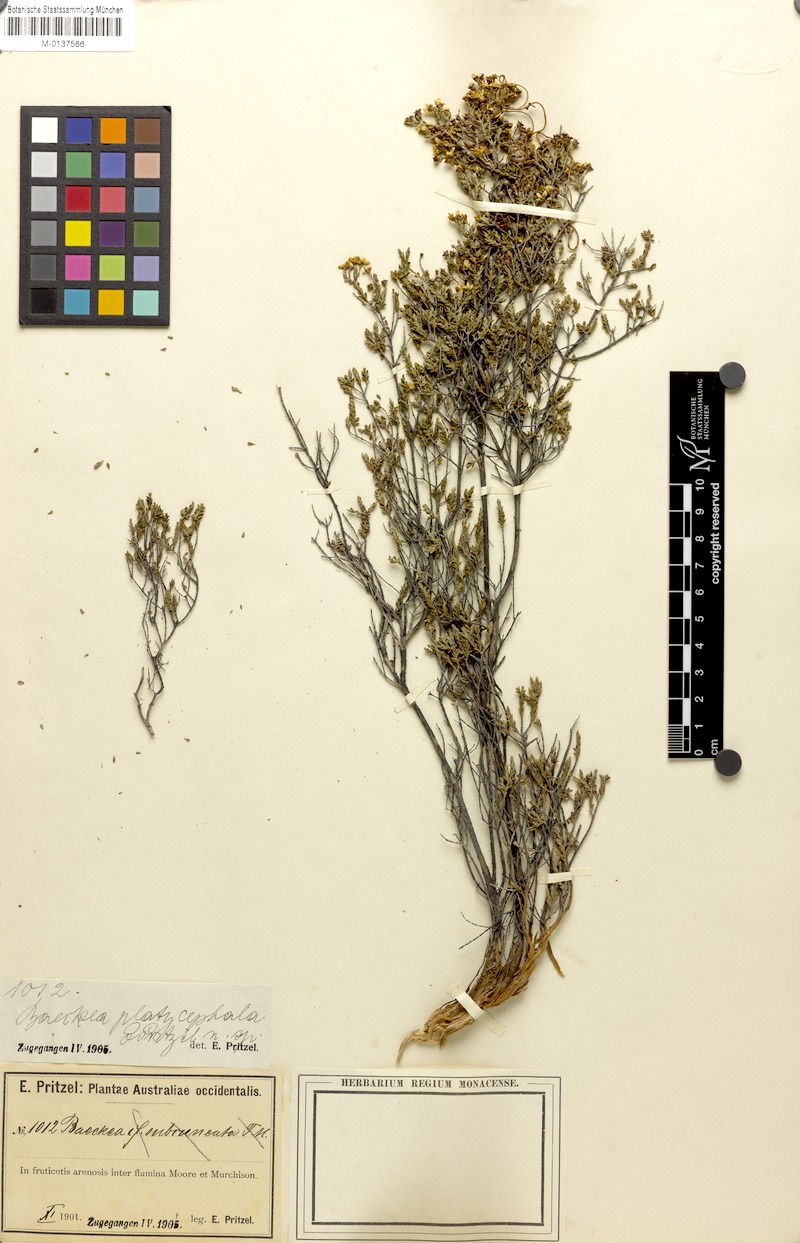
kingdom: Plantae
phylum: Tracheophyta
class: Magnoliopsida
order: Myrtales
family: Myrtaceae
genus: Ericomyrtus
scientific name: Ericomyrtus serpyllifolia
